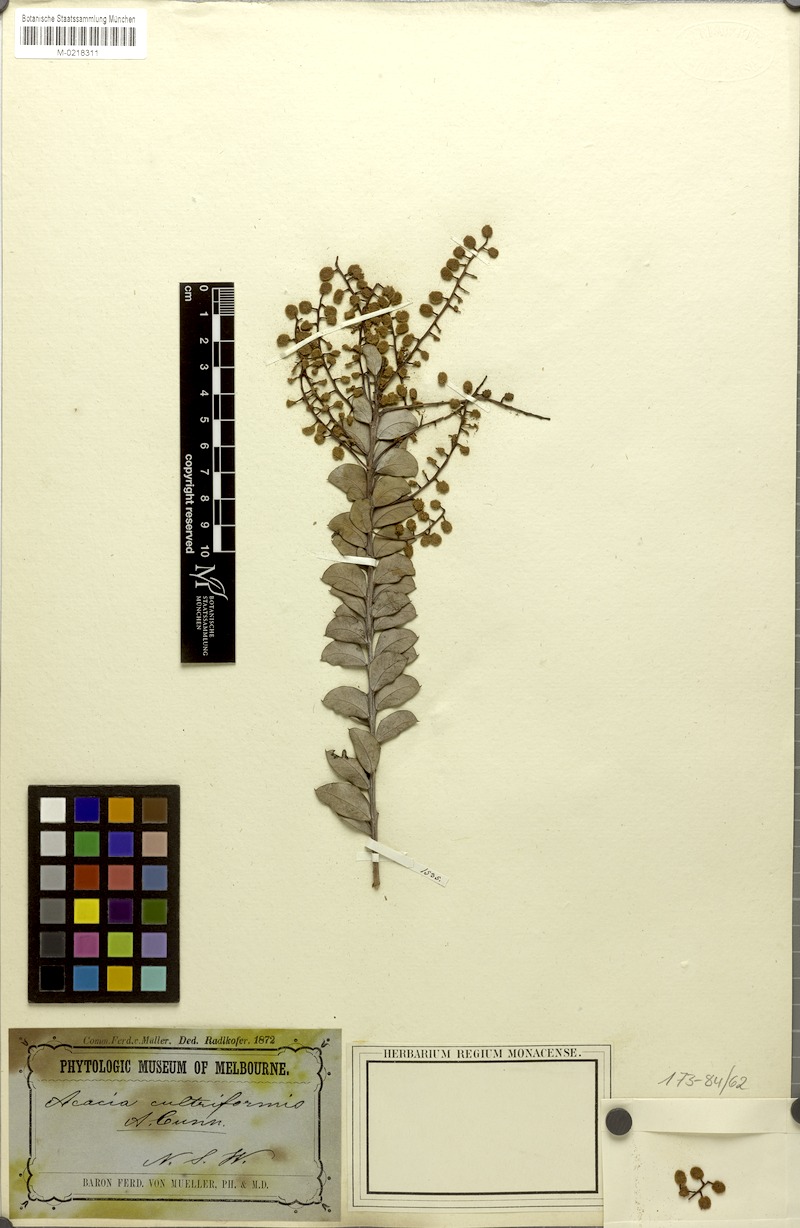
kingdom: Plantae
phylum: Tracheophyta
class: Magnoliopsida
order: Fabales
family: Fabaceae
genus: Acacia
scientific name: Acacia cultriformis
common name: Knife acacia
